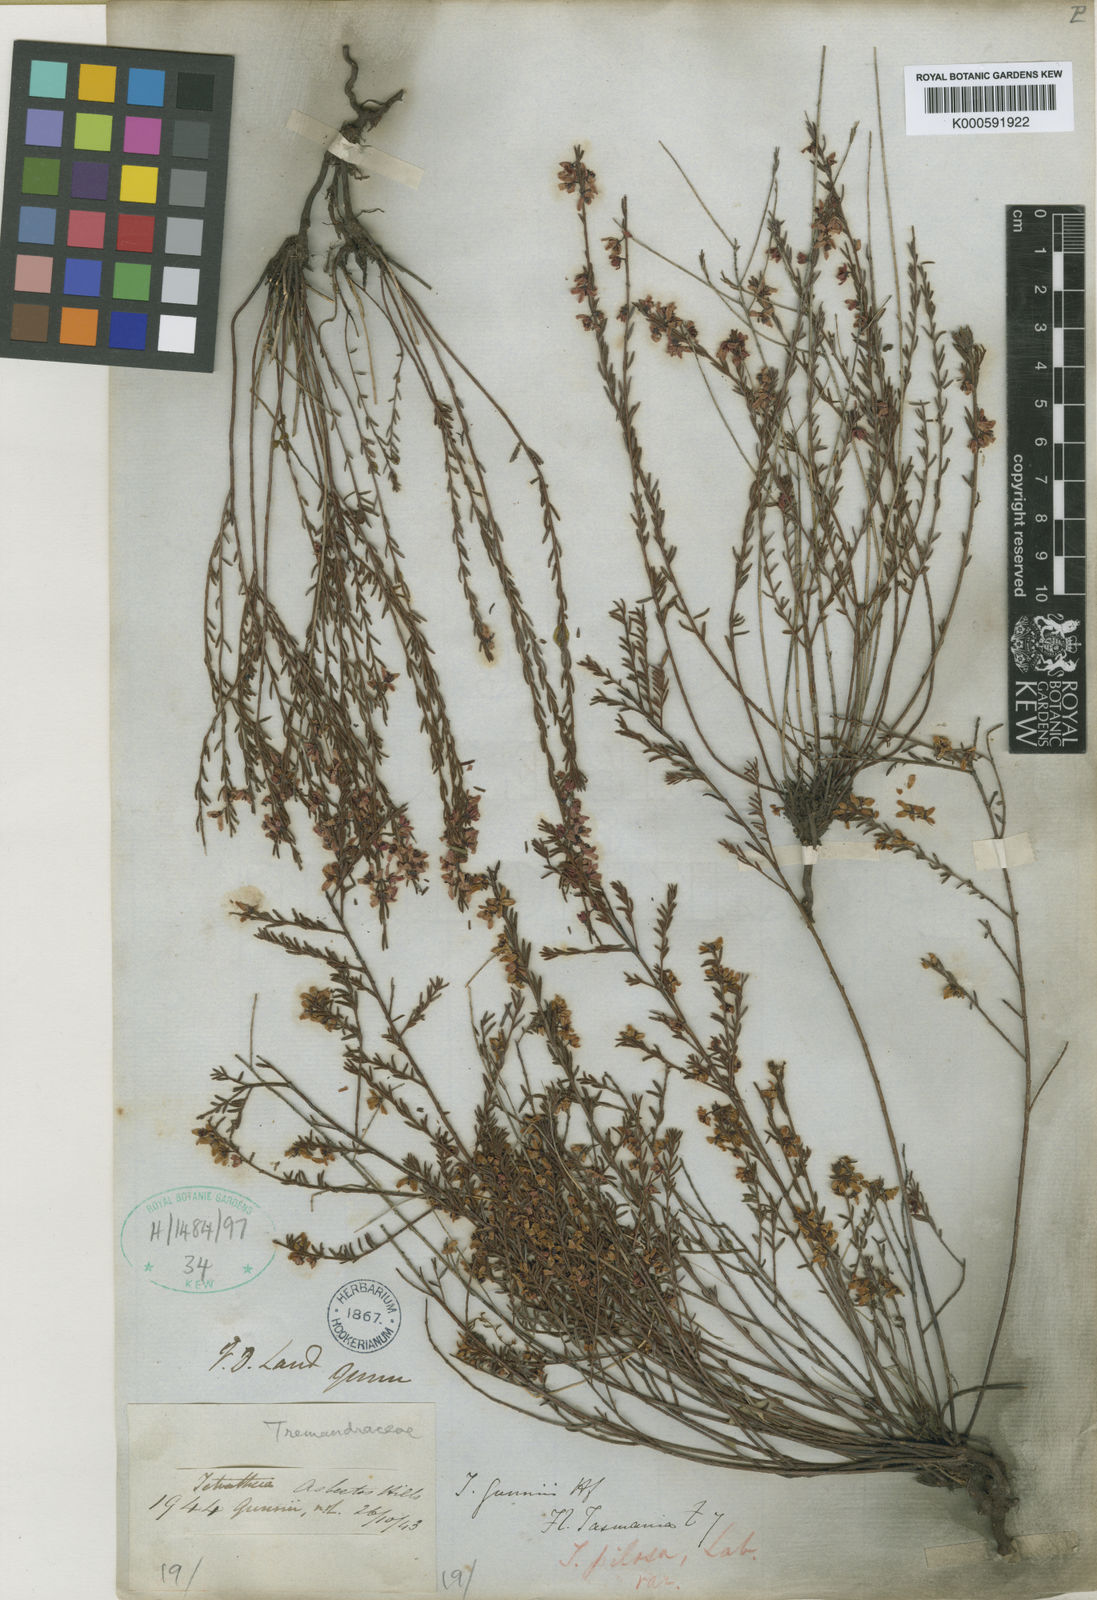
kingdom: Plantae
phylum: Tracheophyta
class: Magnoliopsida
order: Oxalidales
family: Elaeocarpaceae
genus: Tetratheca
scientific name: Tetratheca gunnii
